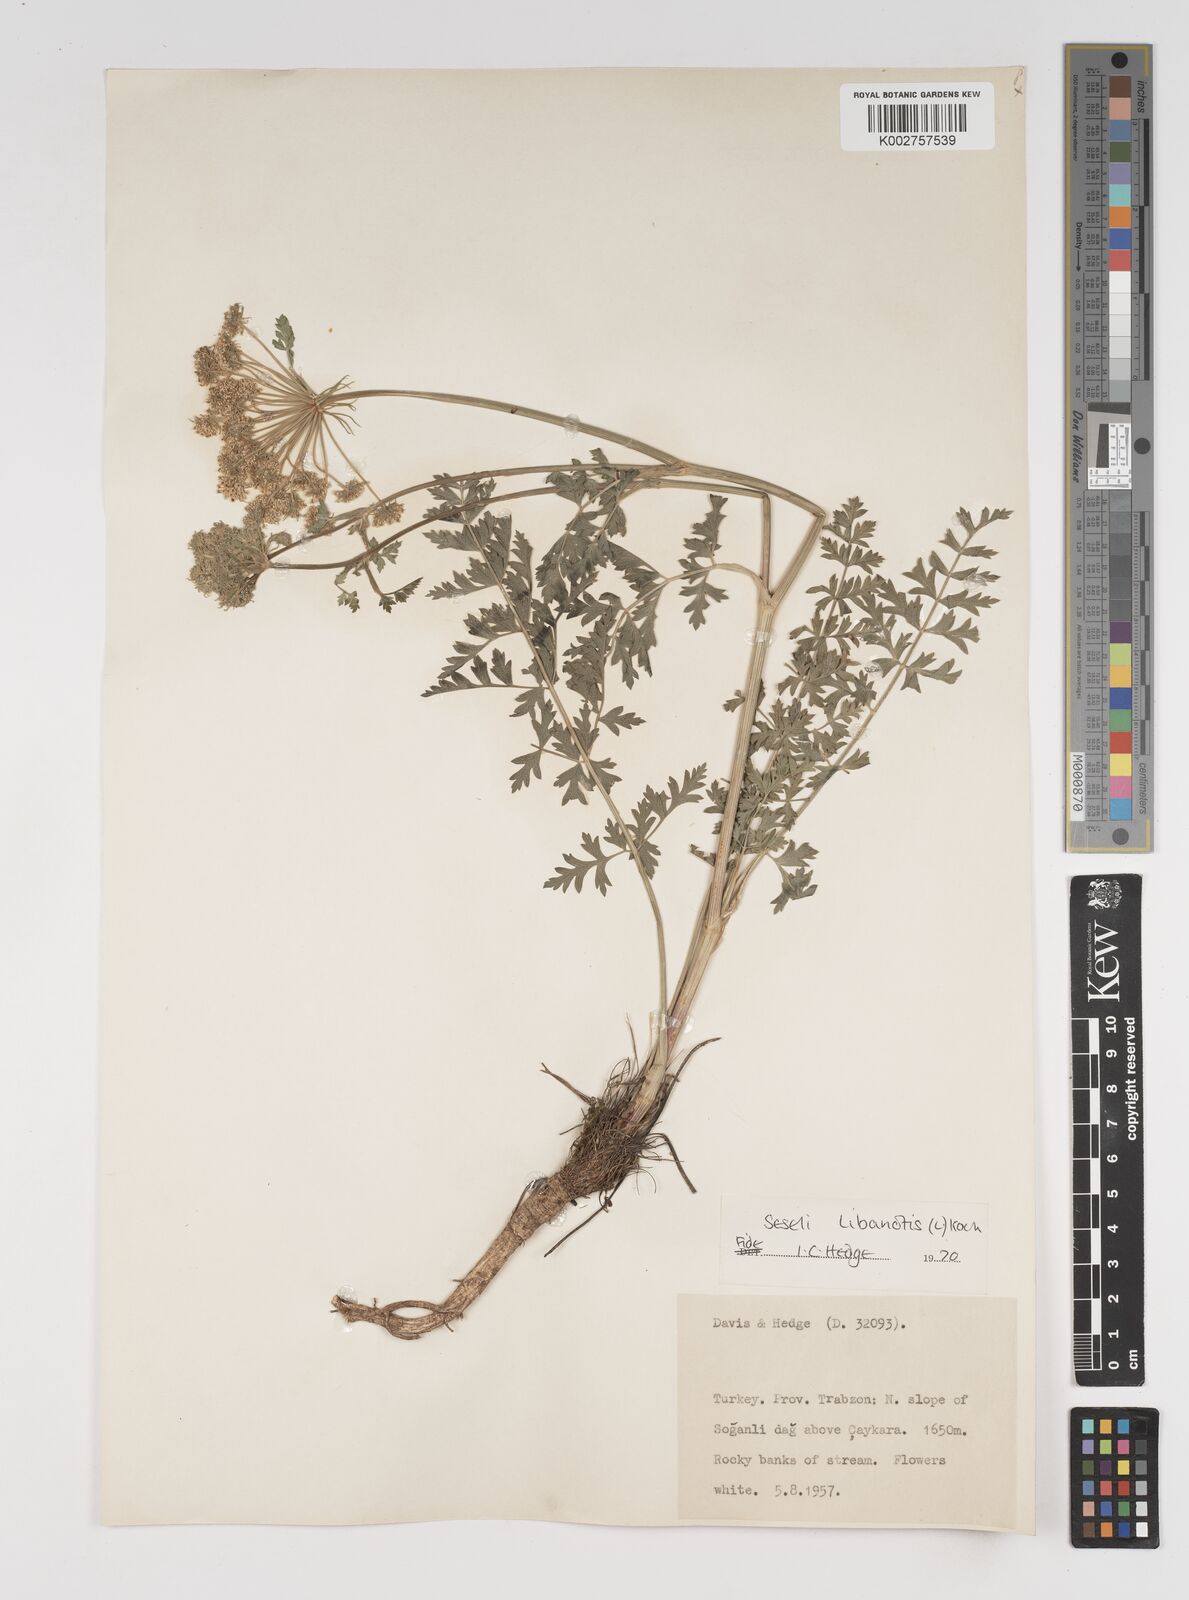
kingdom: Plantae
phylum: Tracheophyta
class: Magnoliopsida
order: Apiales
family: Apiaceae
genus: Seseli
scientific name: Seseli libanotis
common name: Mooncarrot
